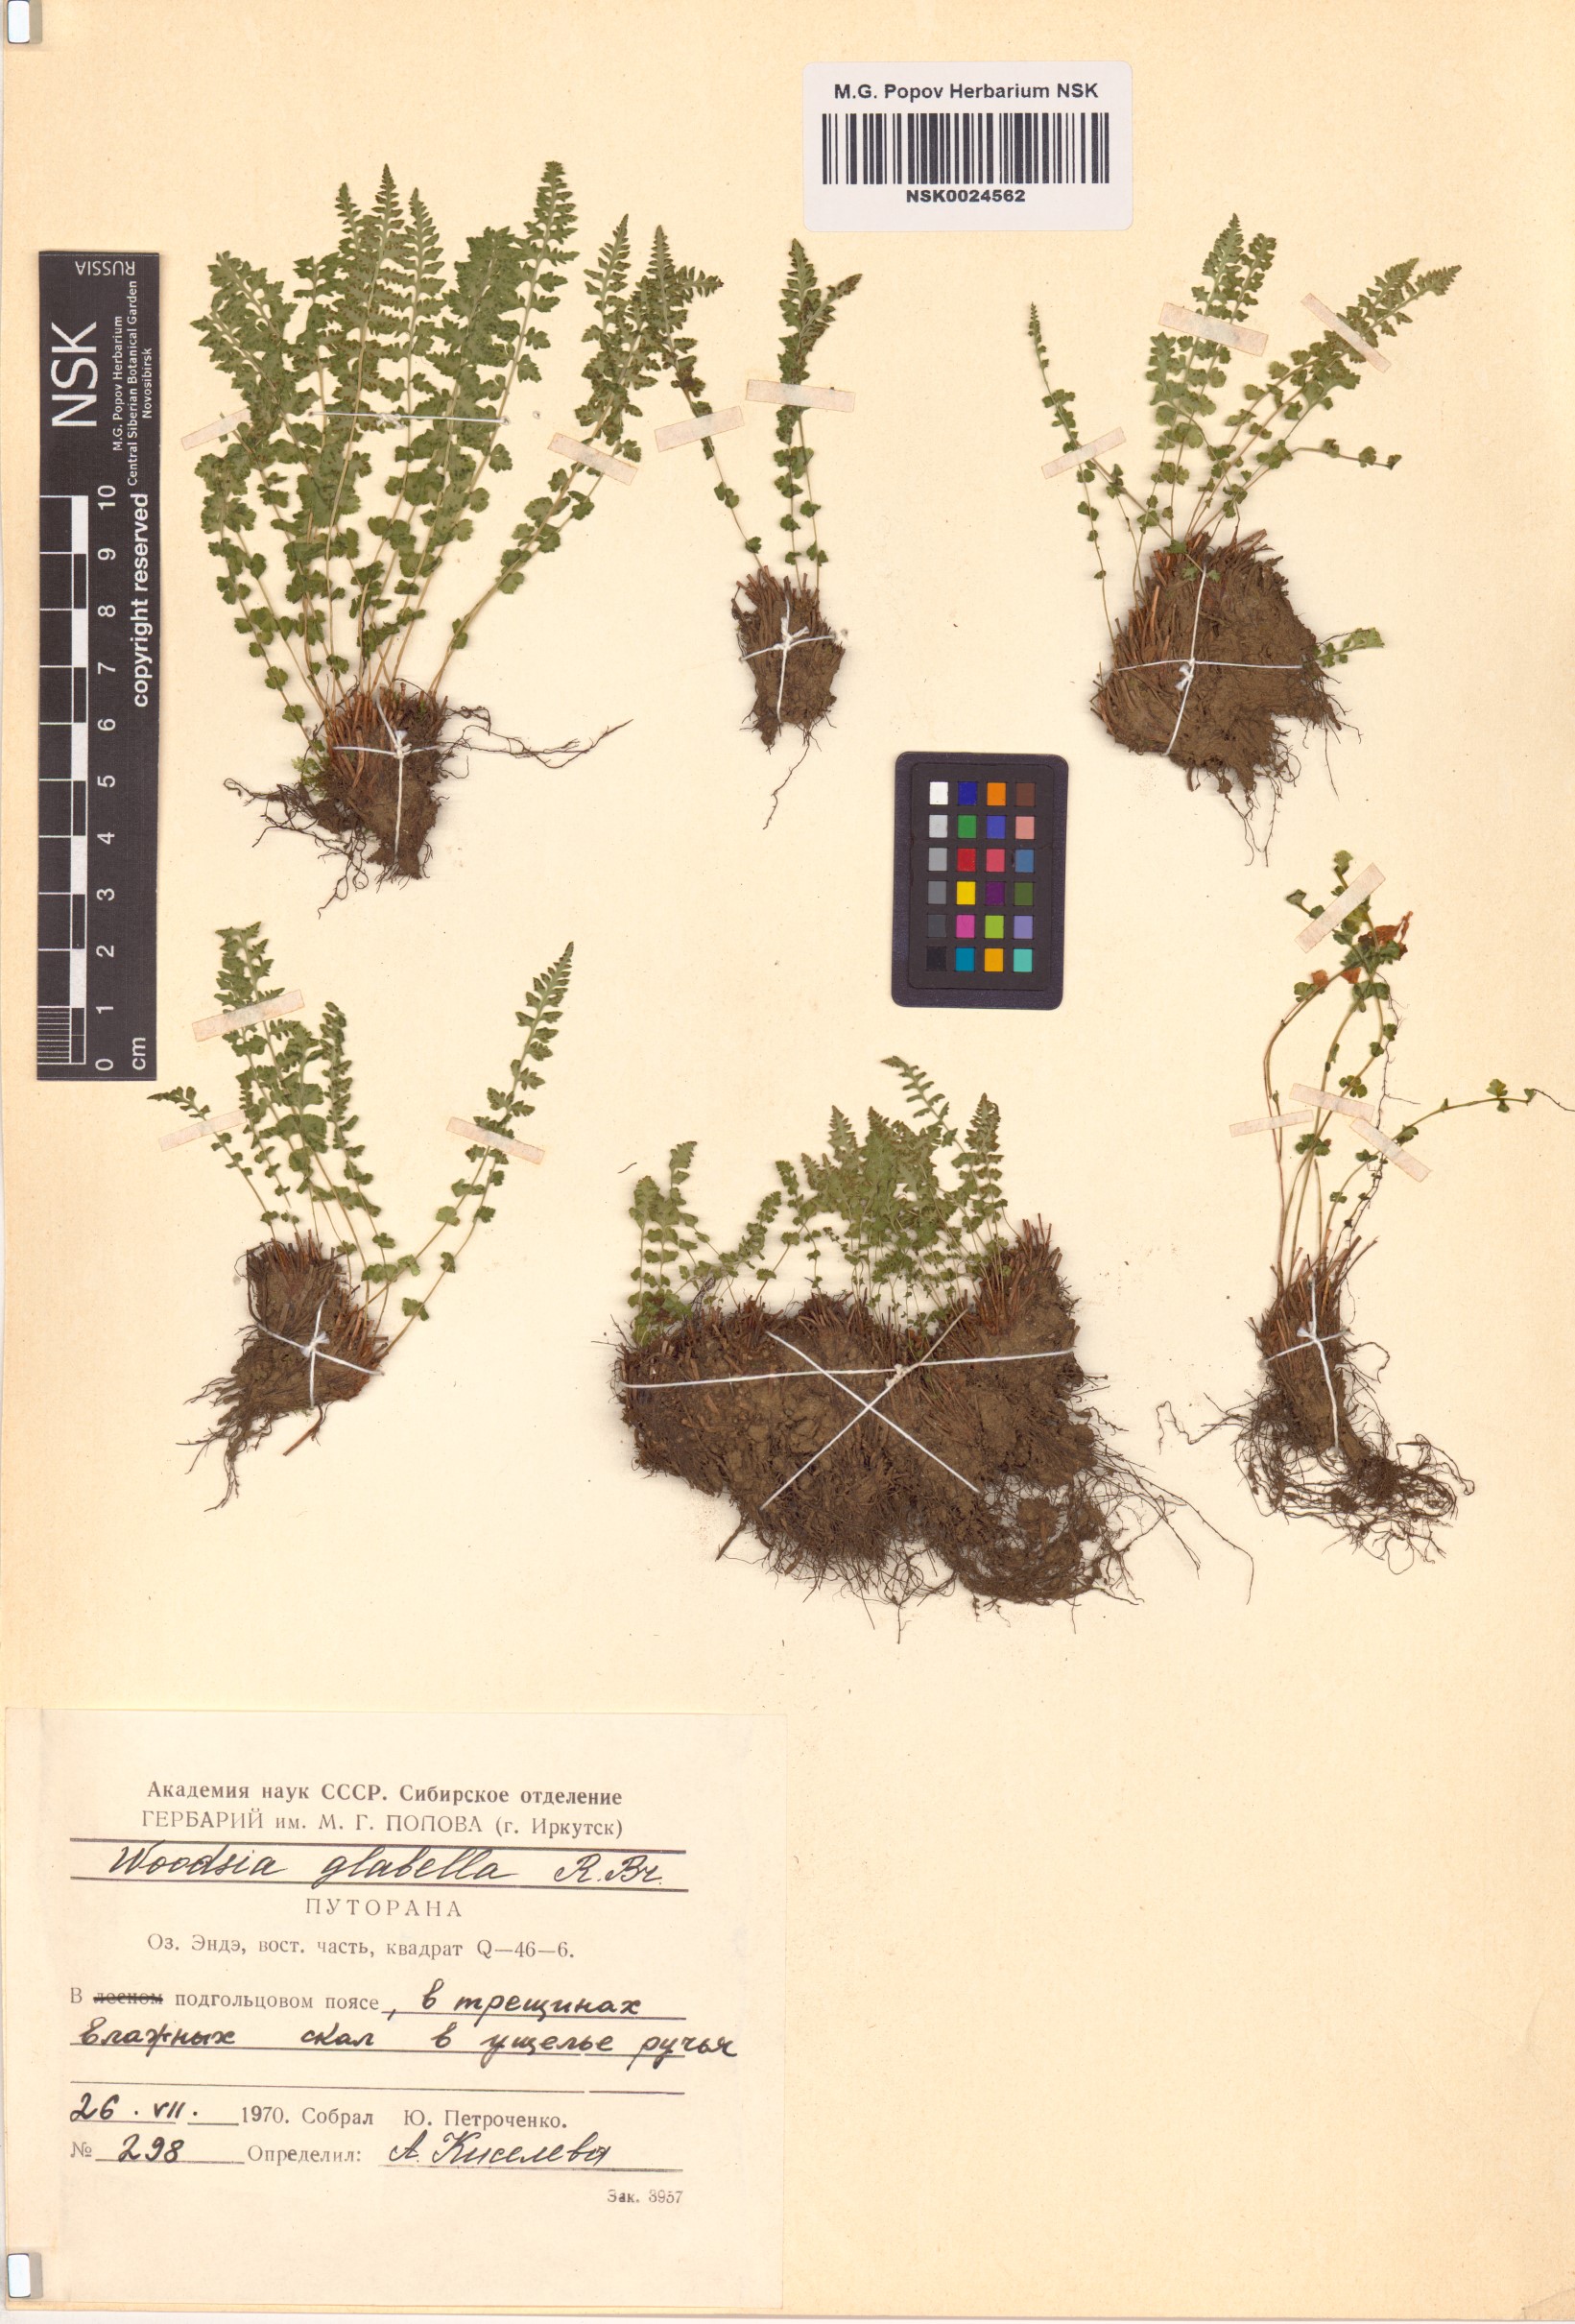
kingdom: Plantae
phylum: Tracheophyta
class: Polypodiopsida
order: Polypodiales
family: Woodsiaceae
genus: Woodsia
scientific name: Woodsia glabella
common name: Smooth woodsia
